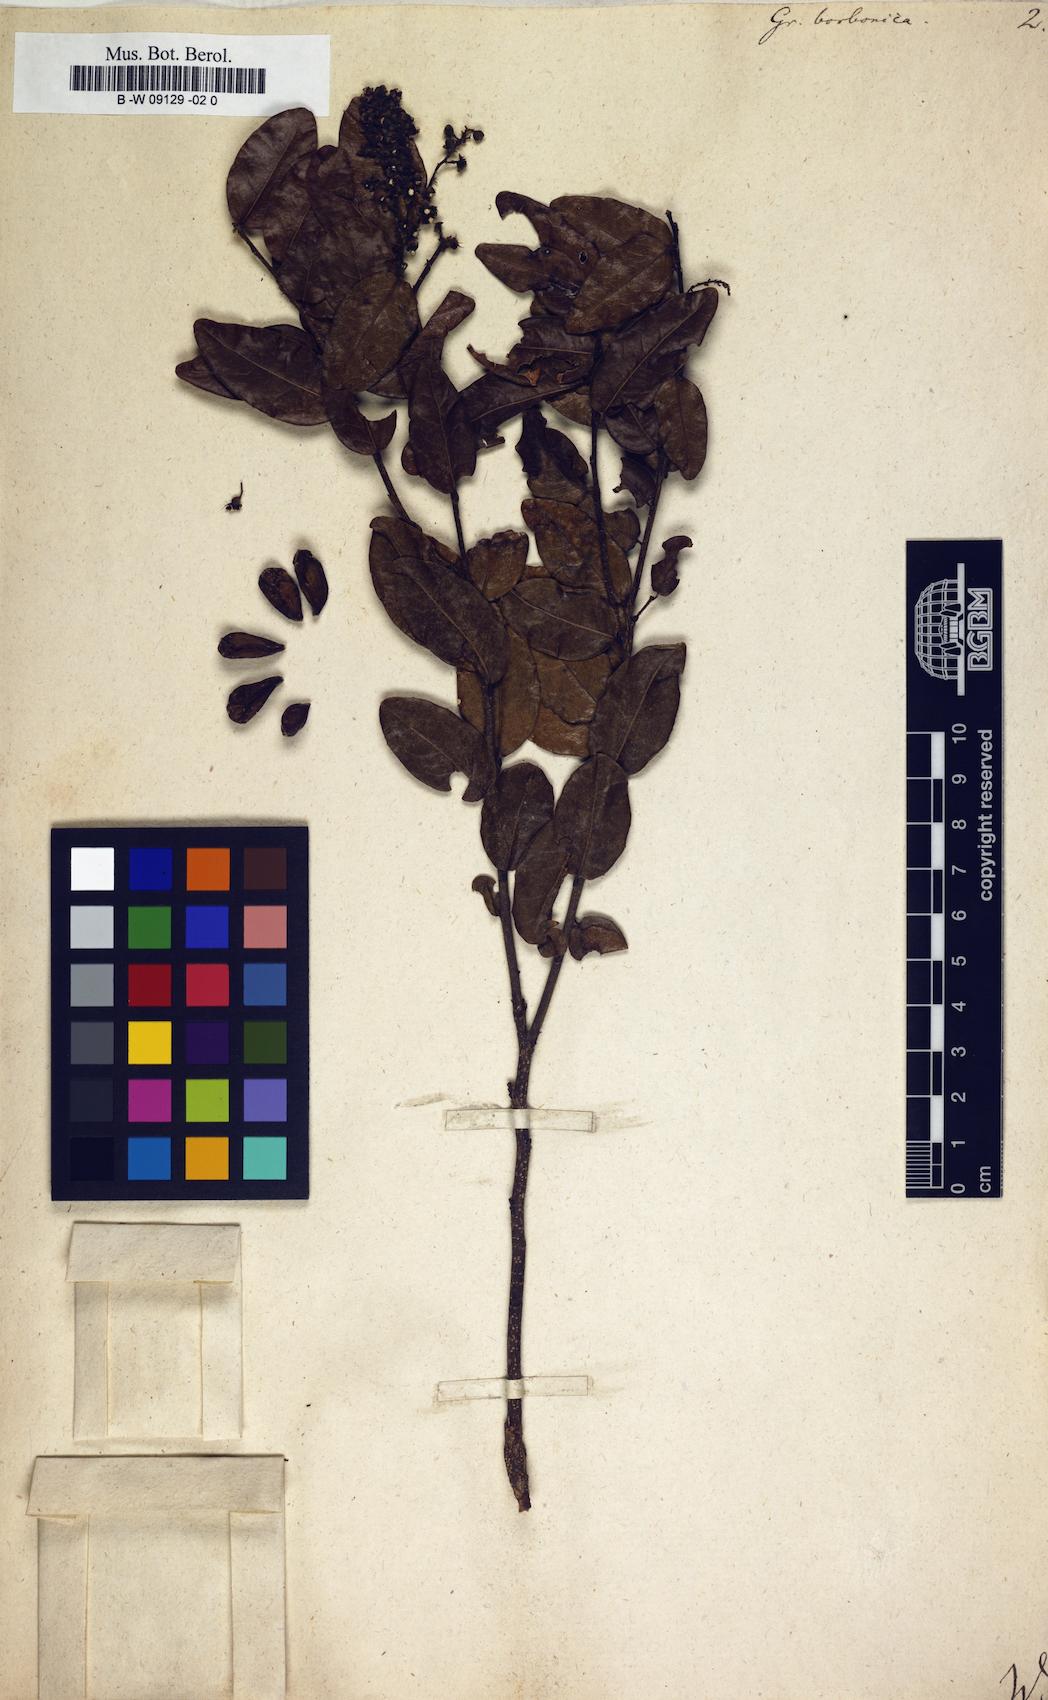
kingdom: Plantae
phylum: Tracheophyta
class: Magnoliopsida
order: Malpighiales
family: Chrysobalanaceae
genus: Grangeria
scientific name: Grangeria borbonica
